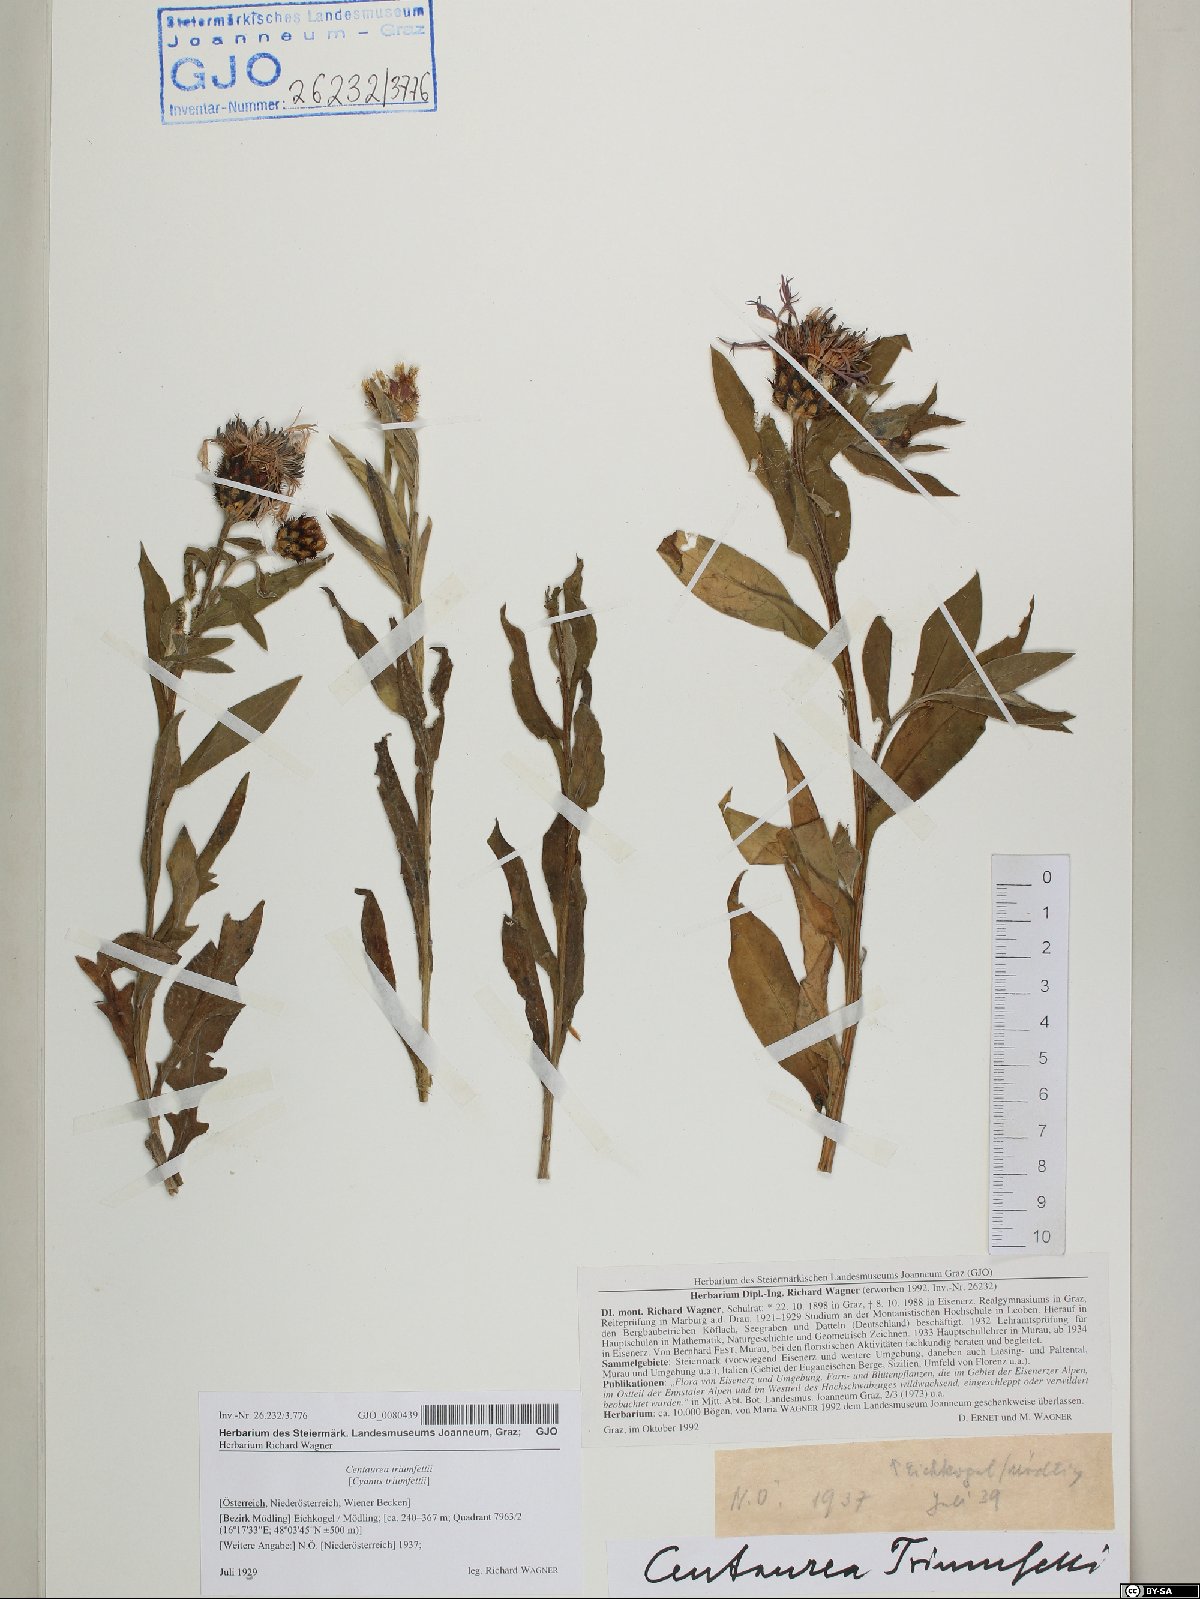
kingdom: Plantae
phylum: Tracheophyta
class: Magnoliopsida
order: Asterales
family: Asteraceae
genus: Centaurea
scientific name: Centaurea triumfettii
